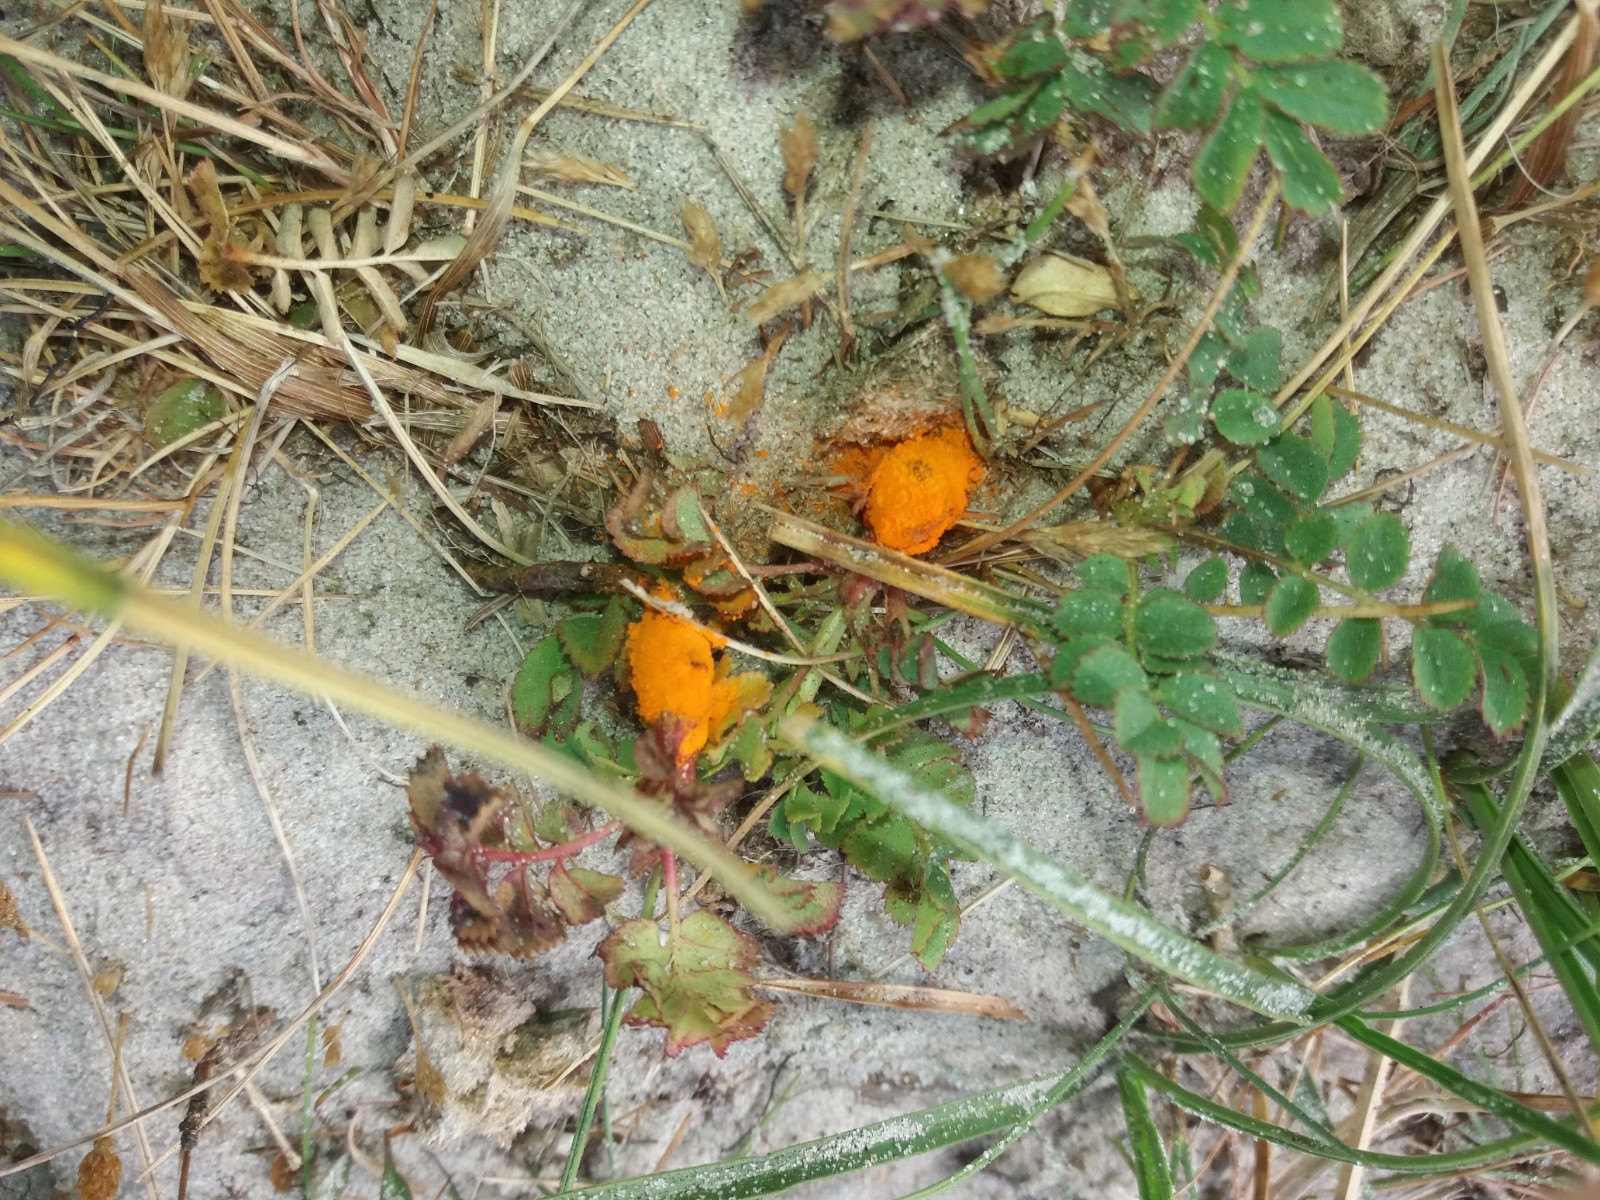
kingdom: Fungi
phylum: Basidiomycota
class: Pucciniomycetes
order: Pucciniales
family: Phragmidiaceae
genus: Phragmidium
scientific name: Phragmidium
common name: flercellerust
